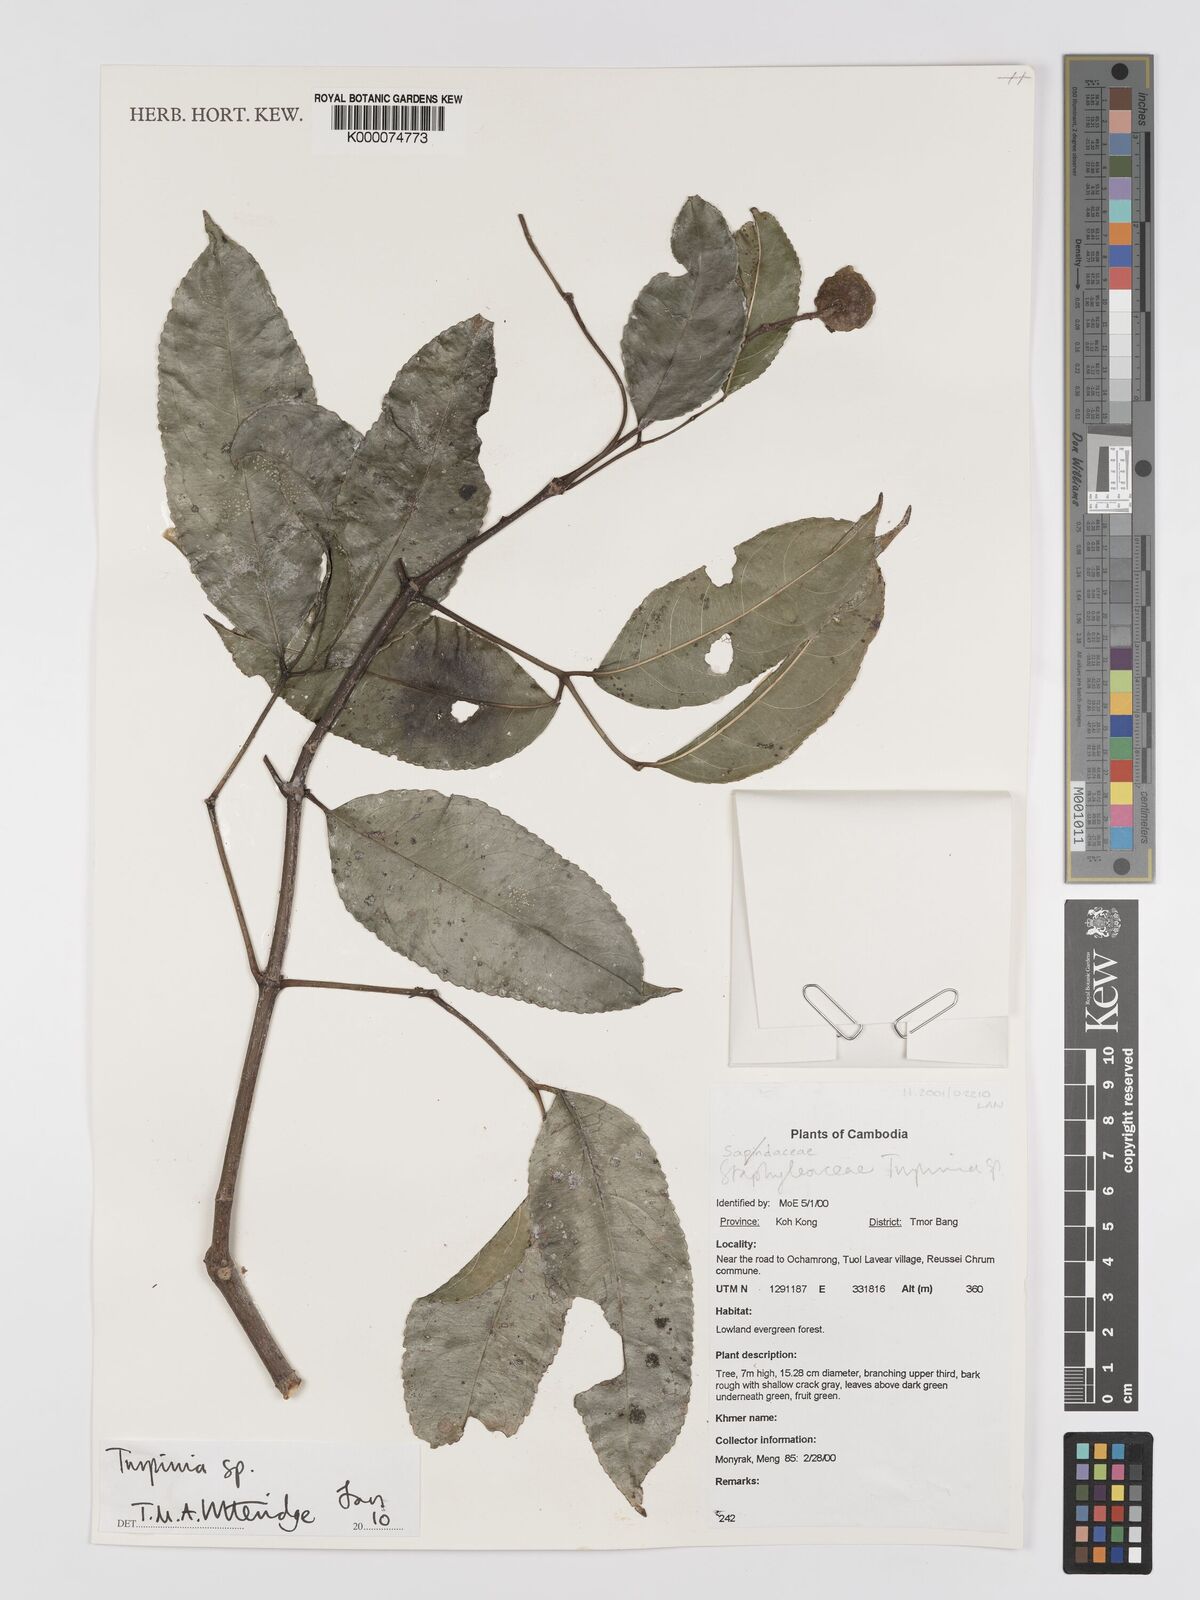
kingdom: Plantae
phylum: Tracheophyta
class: Magnoliopsida
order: Crossosomatales
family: Staphyleaceae
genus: Turpinia
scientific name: Turpinia
